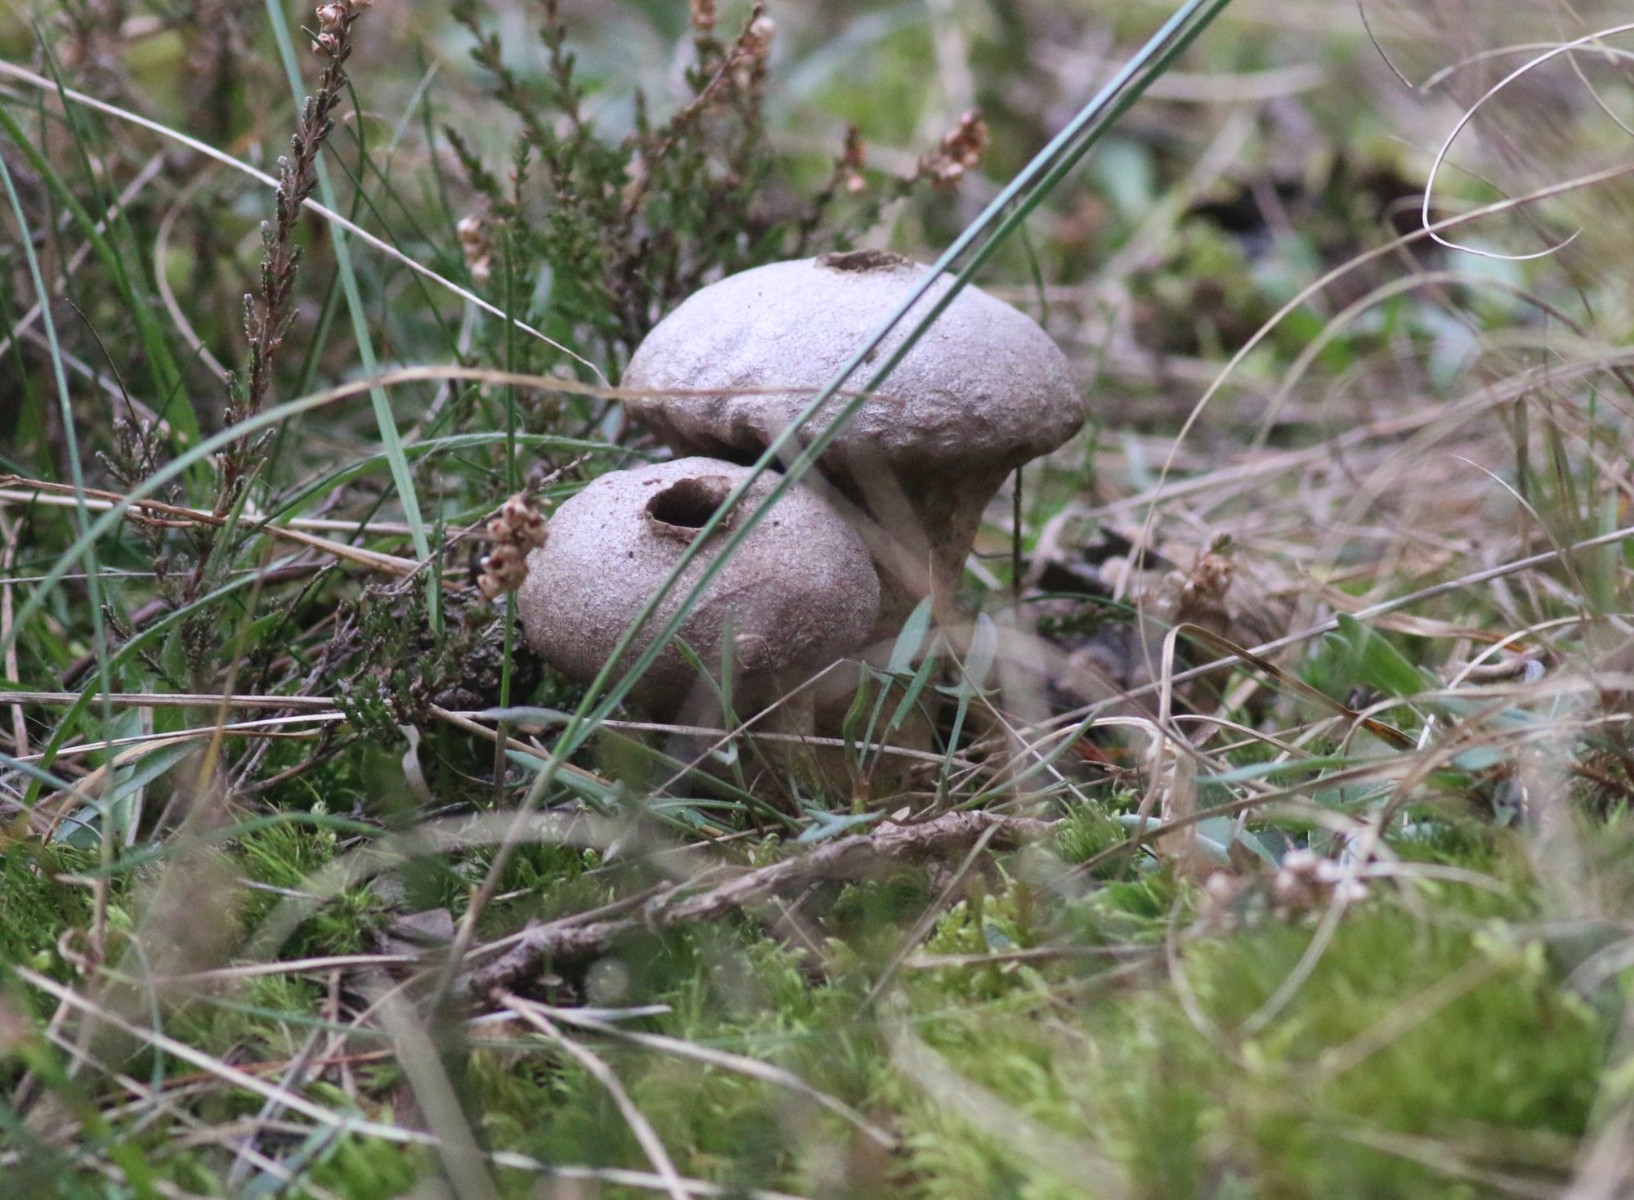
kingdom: Fungi
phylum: Basidiomycota
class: Agaricomycetes
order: Agaricales
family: Lycoperdaceae
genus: Lycoperdon
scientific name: Lycoperdon perlatum
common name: krystal-støvbold
